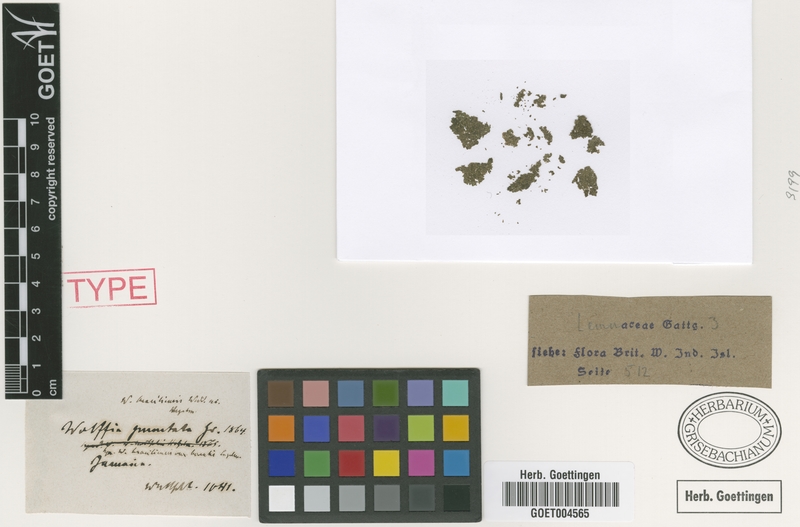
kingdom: Plantae
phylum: Tracheophyta
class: Liliopsida
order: Alismatales
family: Araceae
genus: Wolffia
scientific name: Wolffia brasiliensis
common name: Brazilian watermeal
